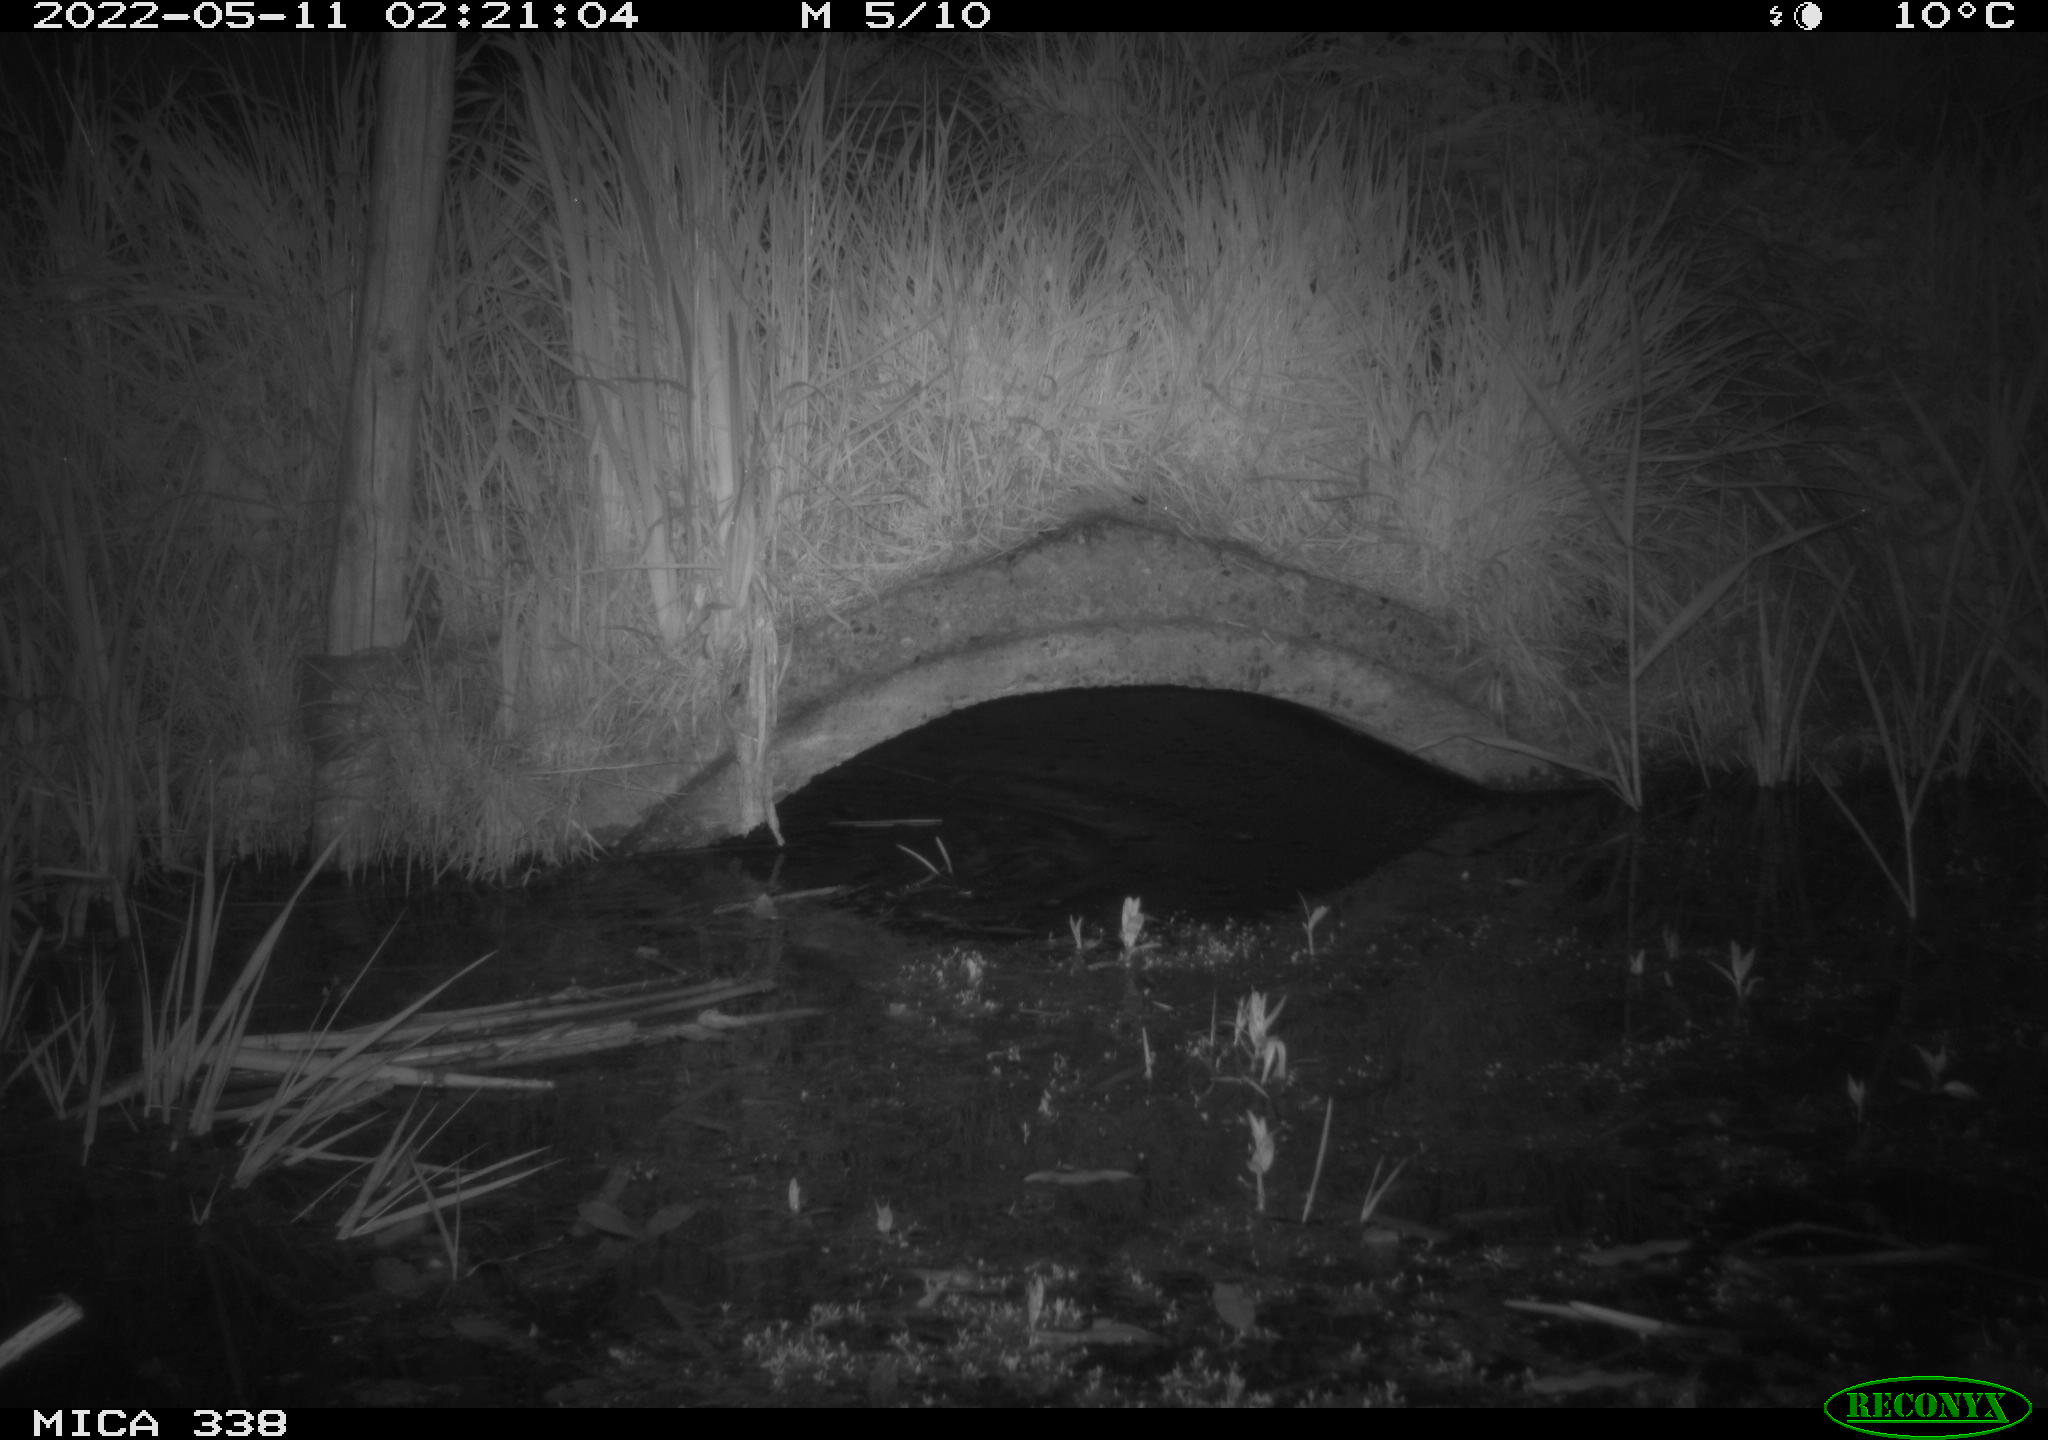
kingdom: Animalia
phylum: Chordata
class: Mammalia
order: Rodentia
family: Muridae
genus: Rattus
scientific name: Rattus norvegicus
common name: Brown rat
